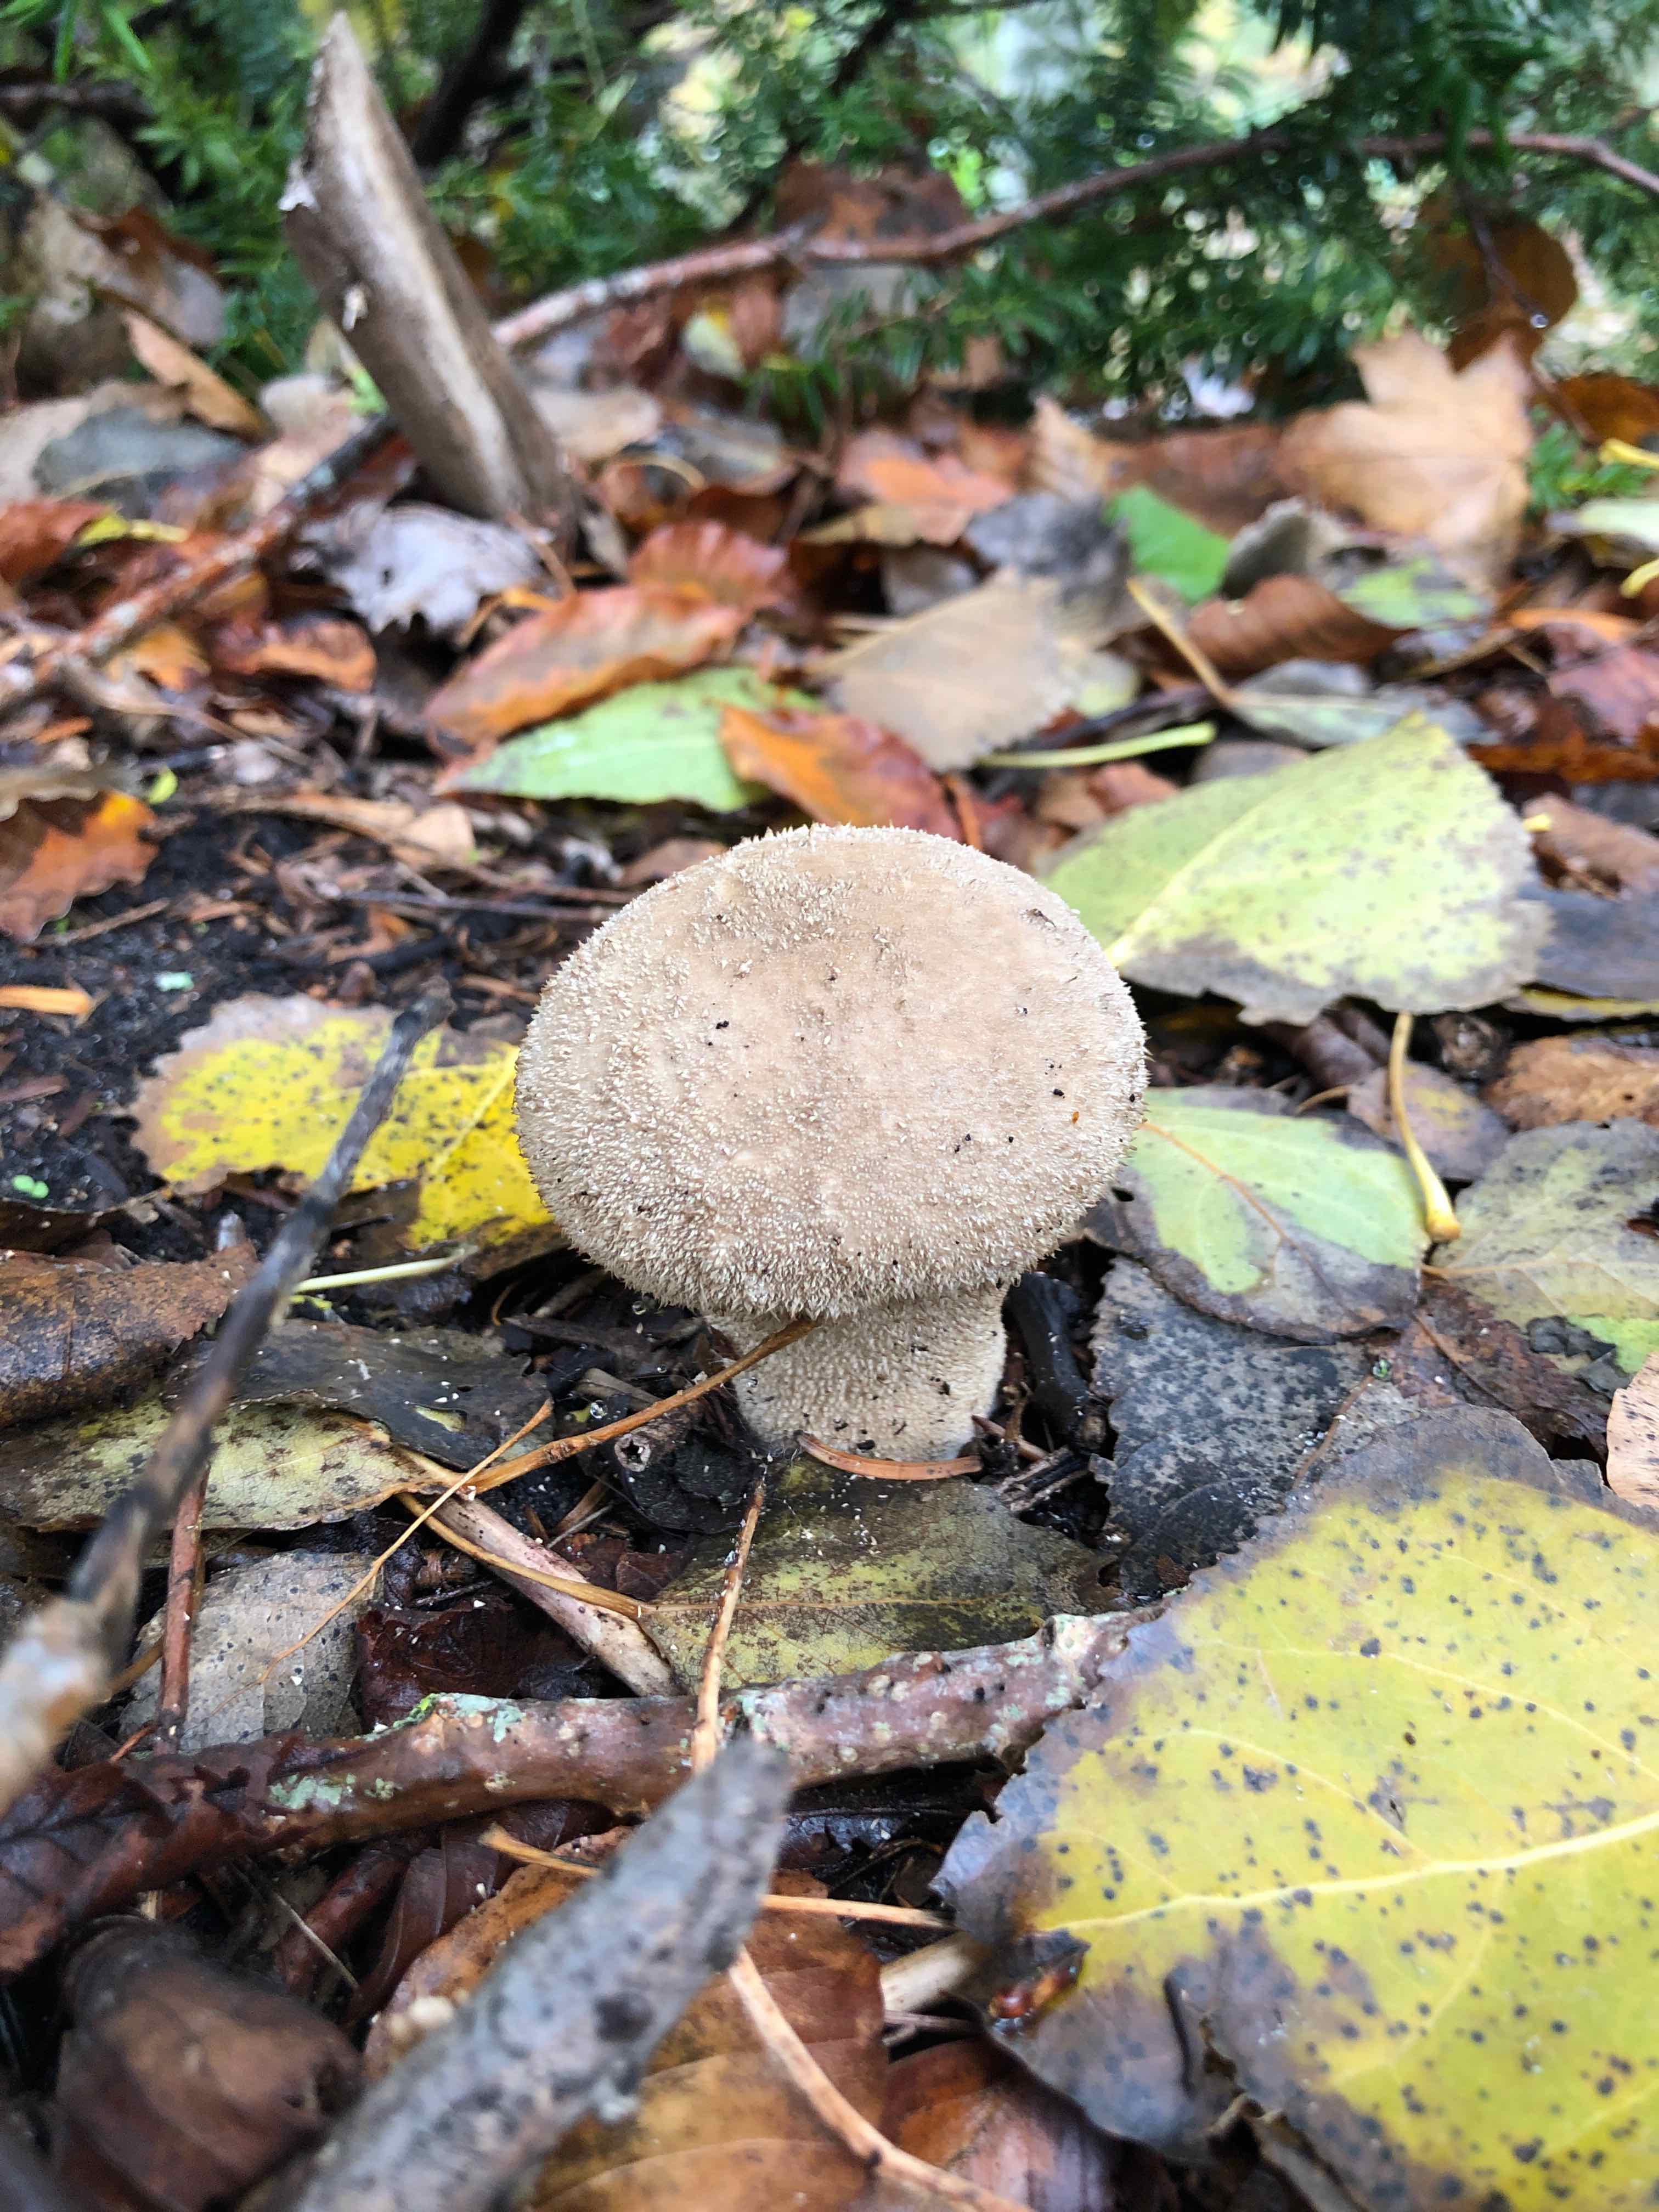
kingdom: Fungi
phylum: Basidiomycota
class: Agaricomycetes
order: Agaricales
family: Agaricaceae
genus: Lycoperdon
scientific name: Lycoperdon
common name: støvbold
